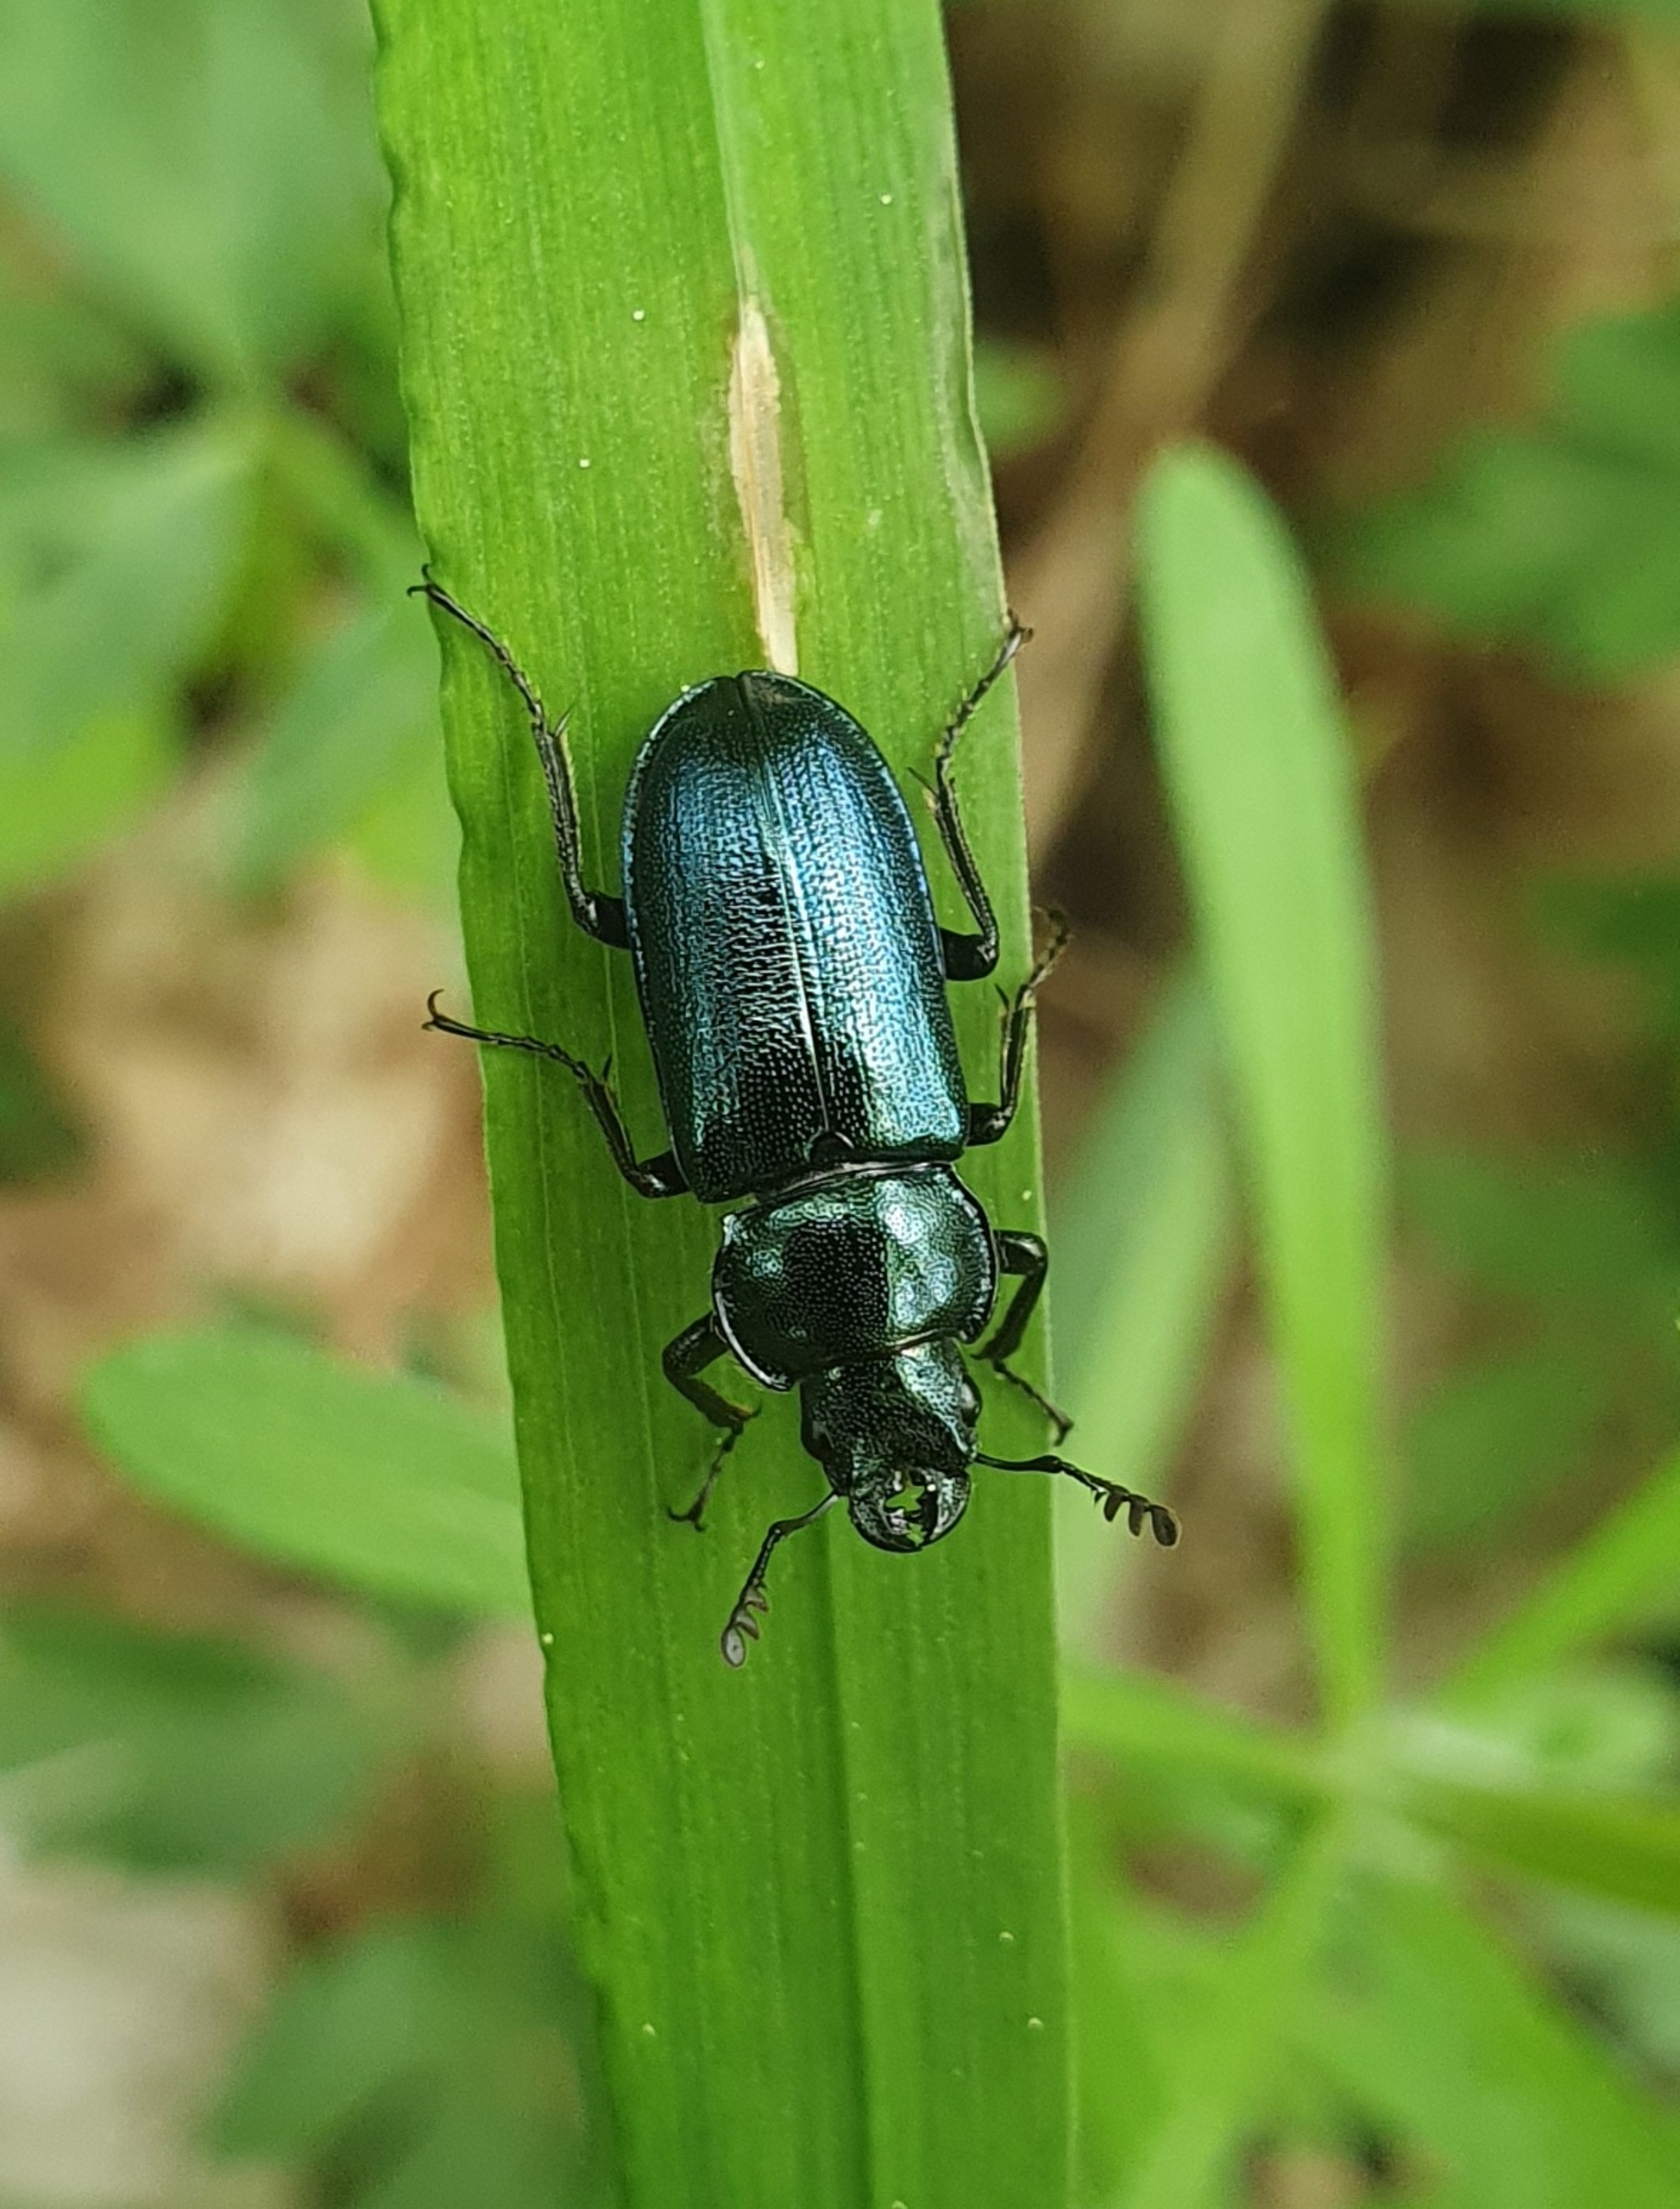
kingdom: Animalia
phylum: Arthropoda
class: Insecta
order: Coleoptera
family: Lucanidae
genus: Platycerus
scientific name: Platycerus caraboides
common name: Blåhjort
